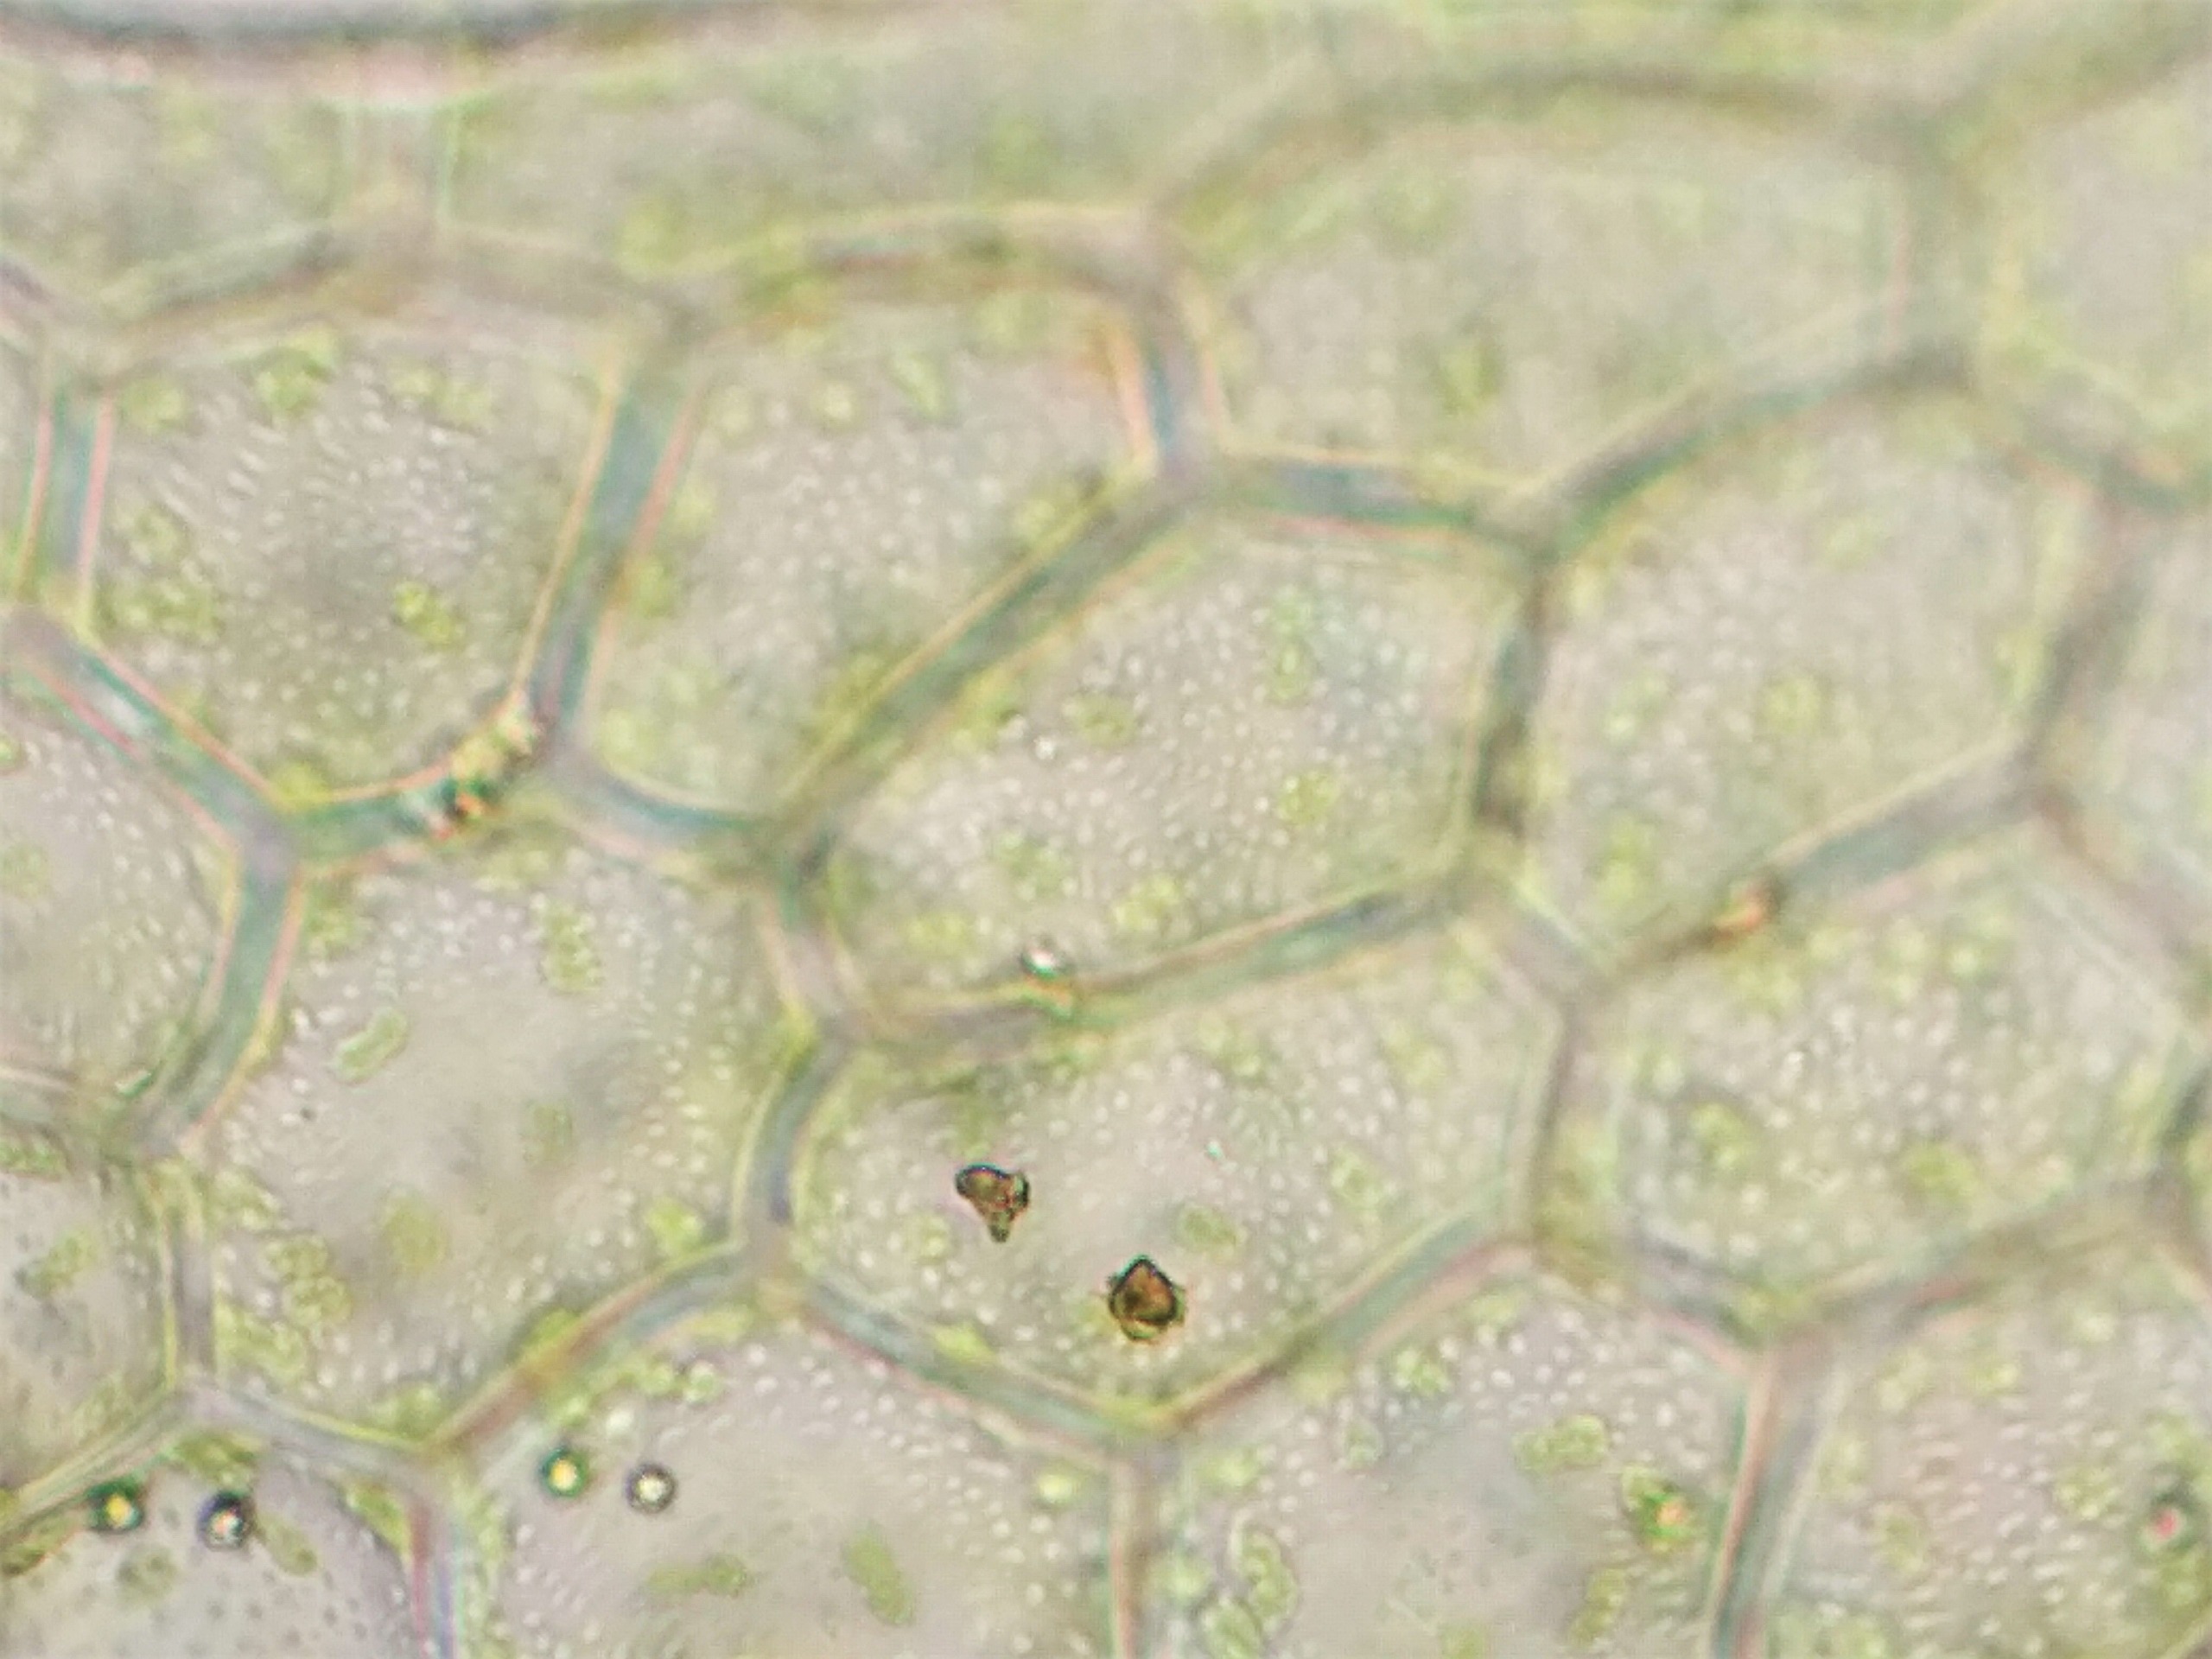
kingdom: Plantae
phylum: Marchantiophyta
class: Jungermanniopsida
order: Jungermanniales
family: Calypogeiaceae
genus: Asperifolia
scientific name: Asperifolia arguta
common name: Liden sækmos
